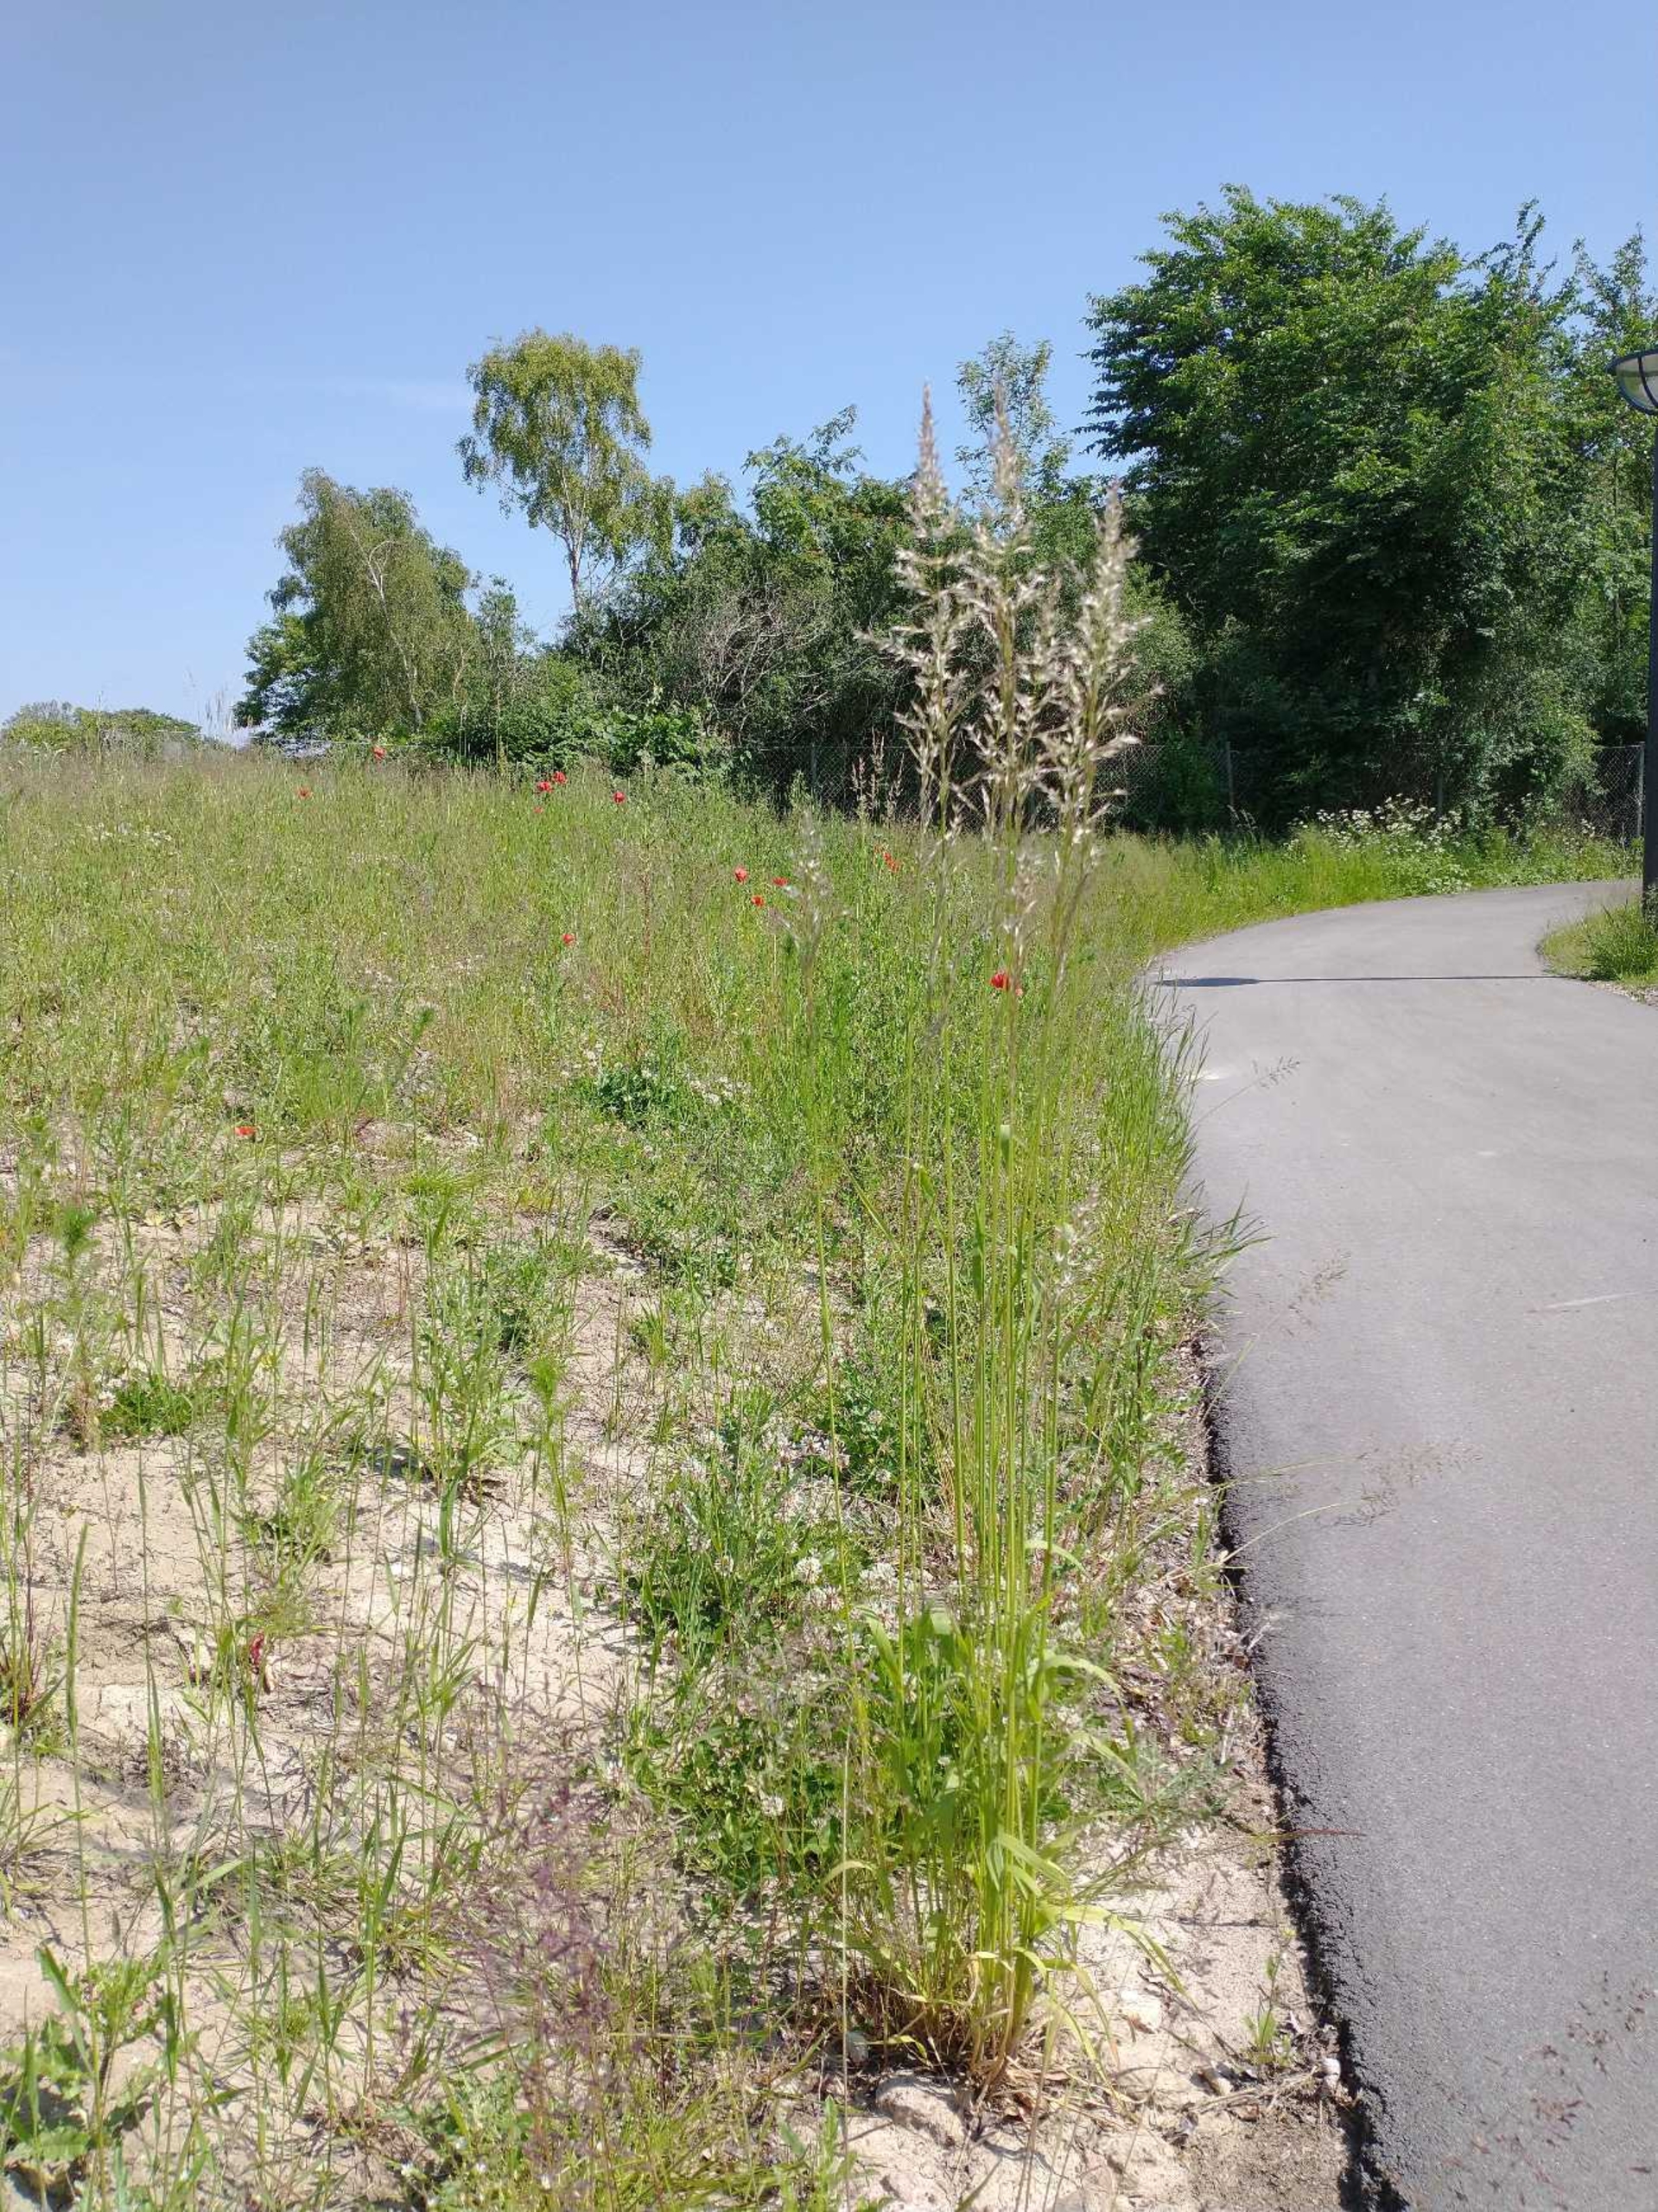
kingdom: Plantae
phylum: Tracheophyta
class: Liliopsida
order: Poales
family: Poaceae
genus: Arrhenatherum
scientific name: Arrhenatherum elatius
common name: Draphavre
